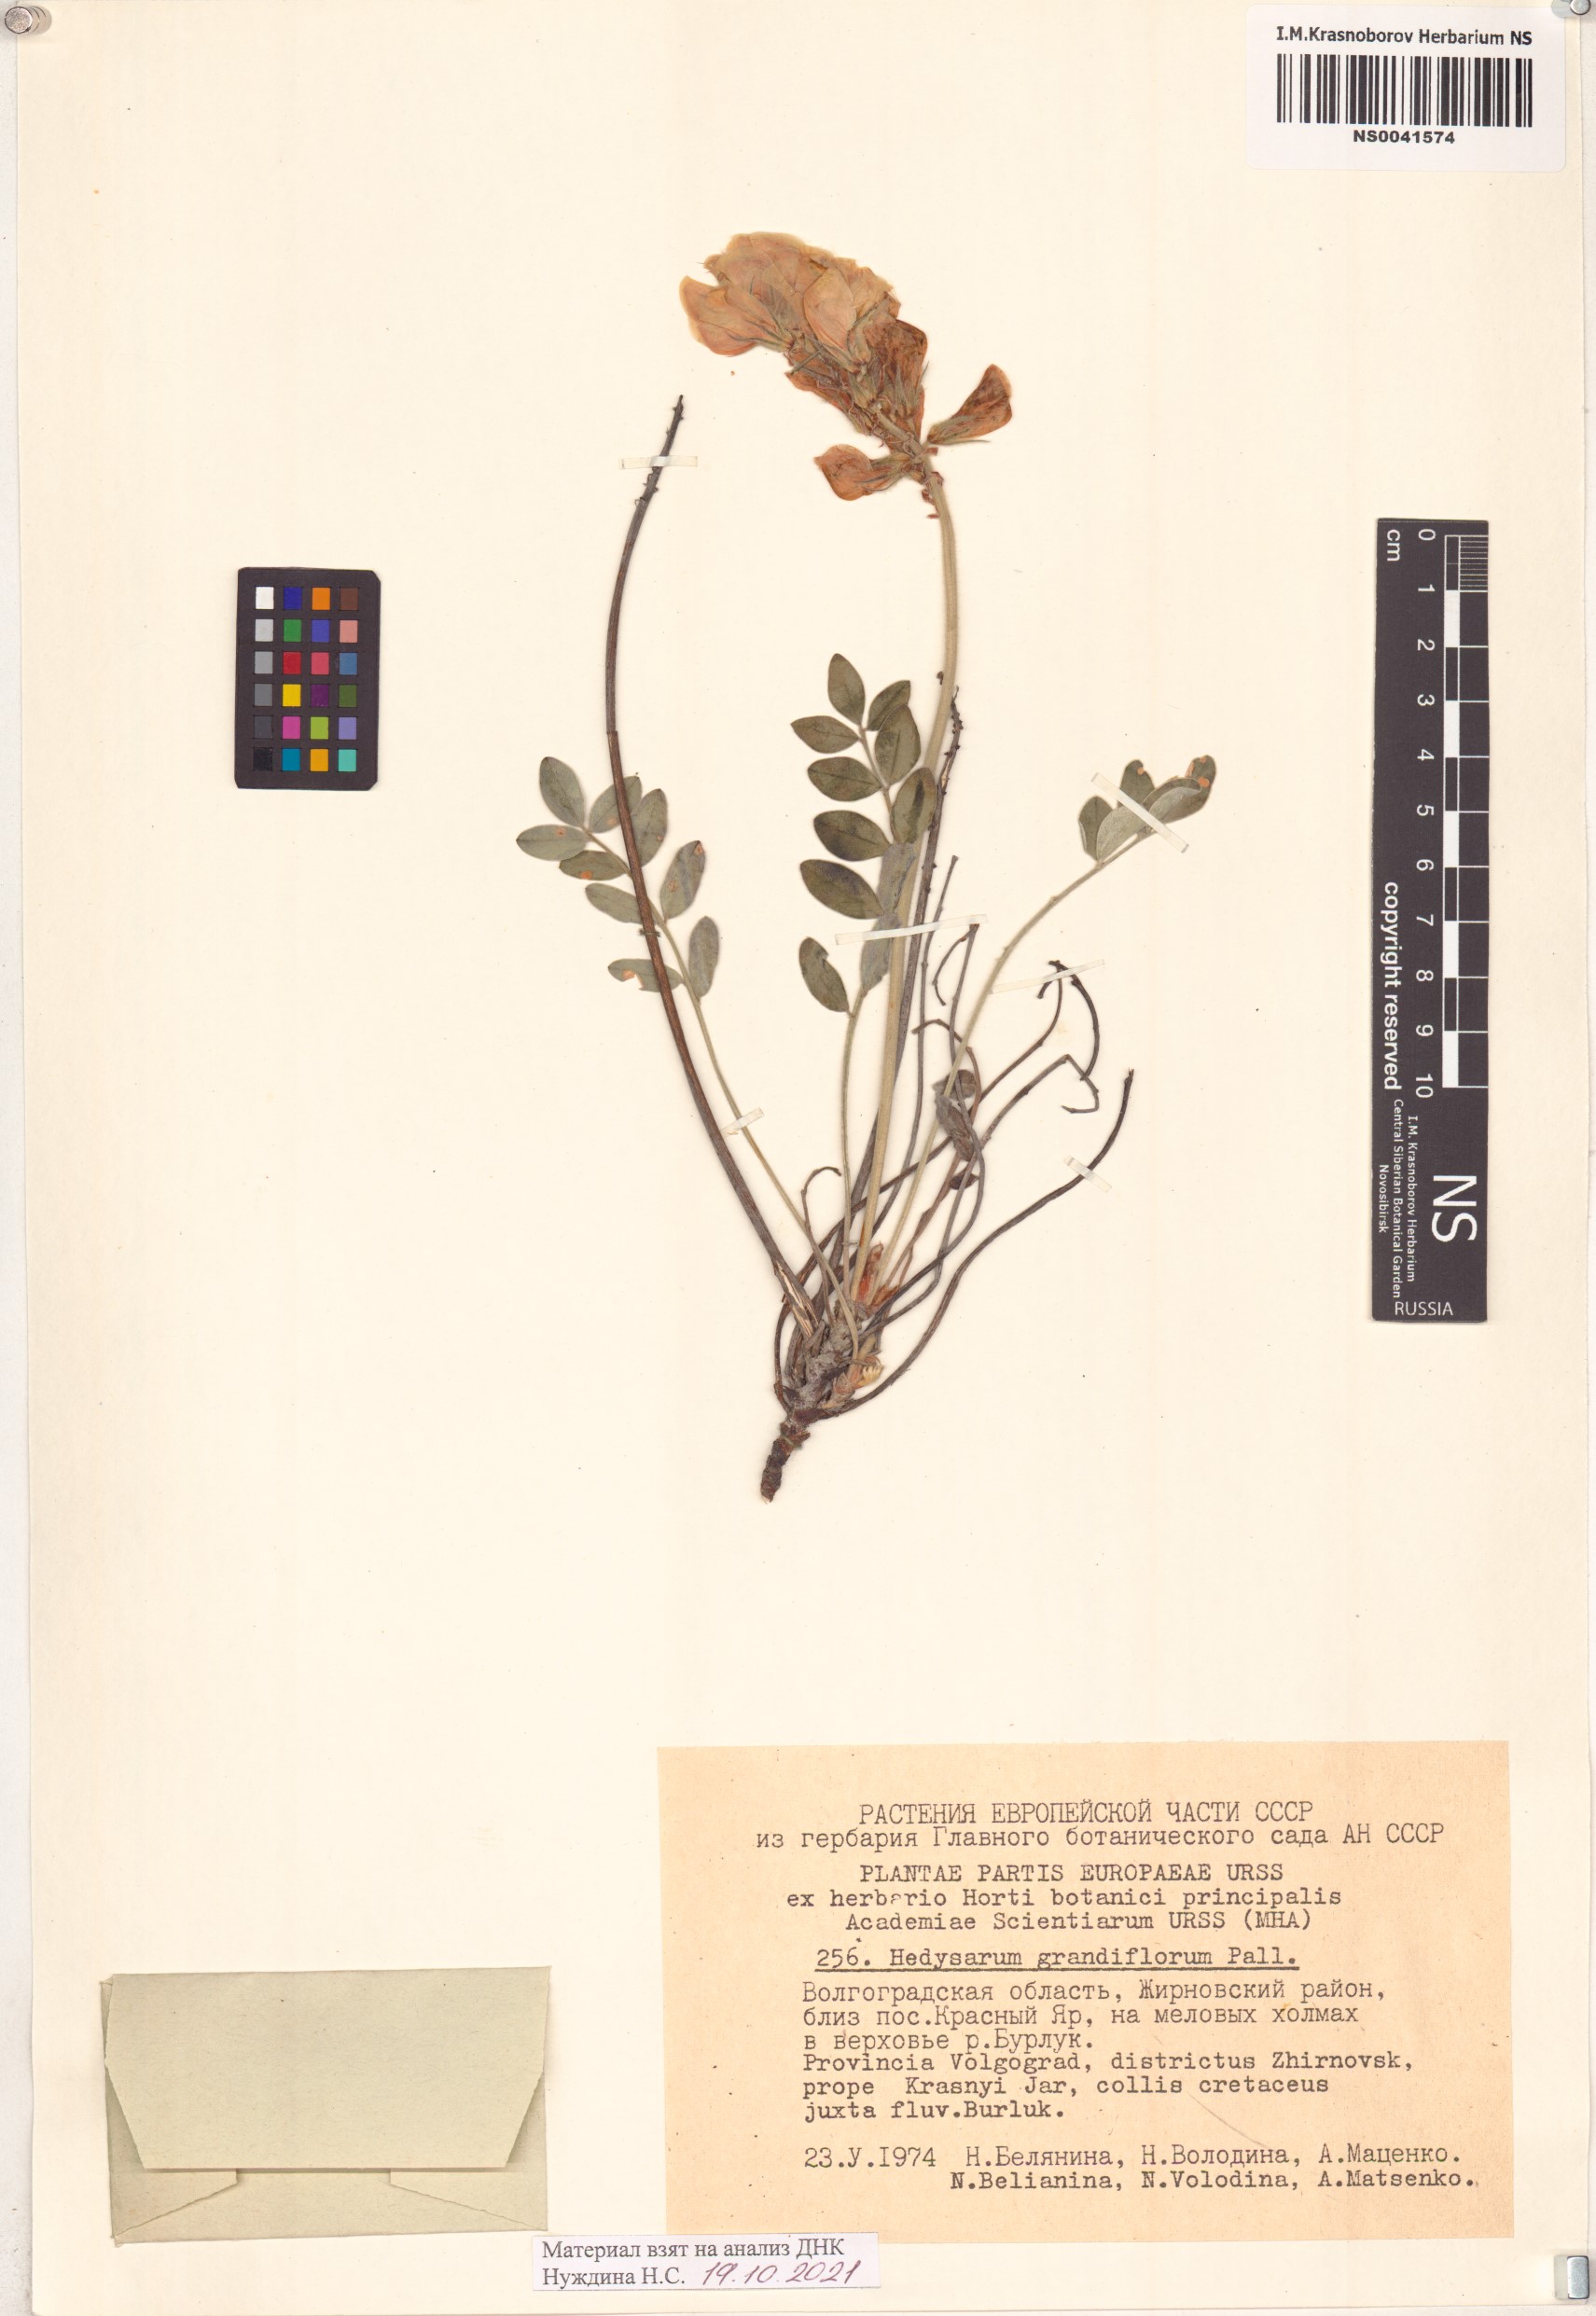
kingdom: Plantae
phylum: Tracheophyta
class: Magnoliopsida
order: Fabales
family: Fabaceae
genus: Hedysarum
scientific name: Hedysarum grandiflorum
